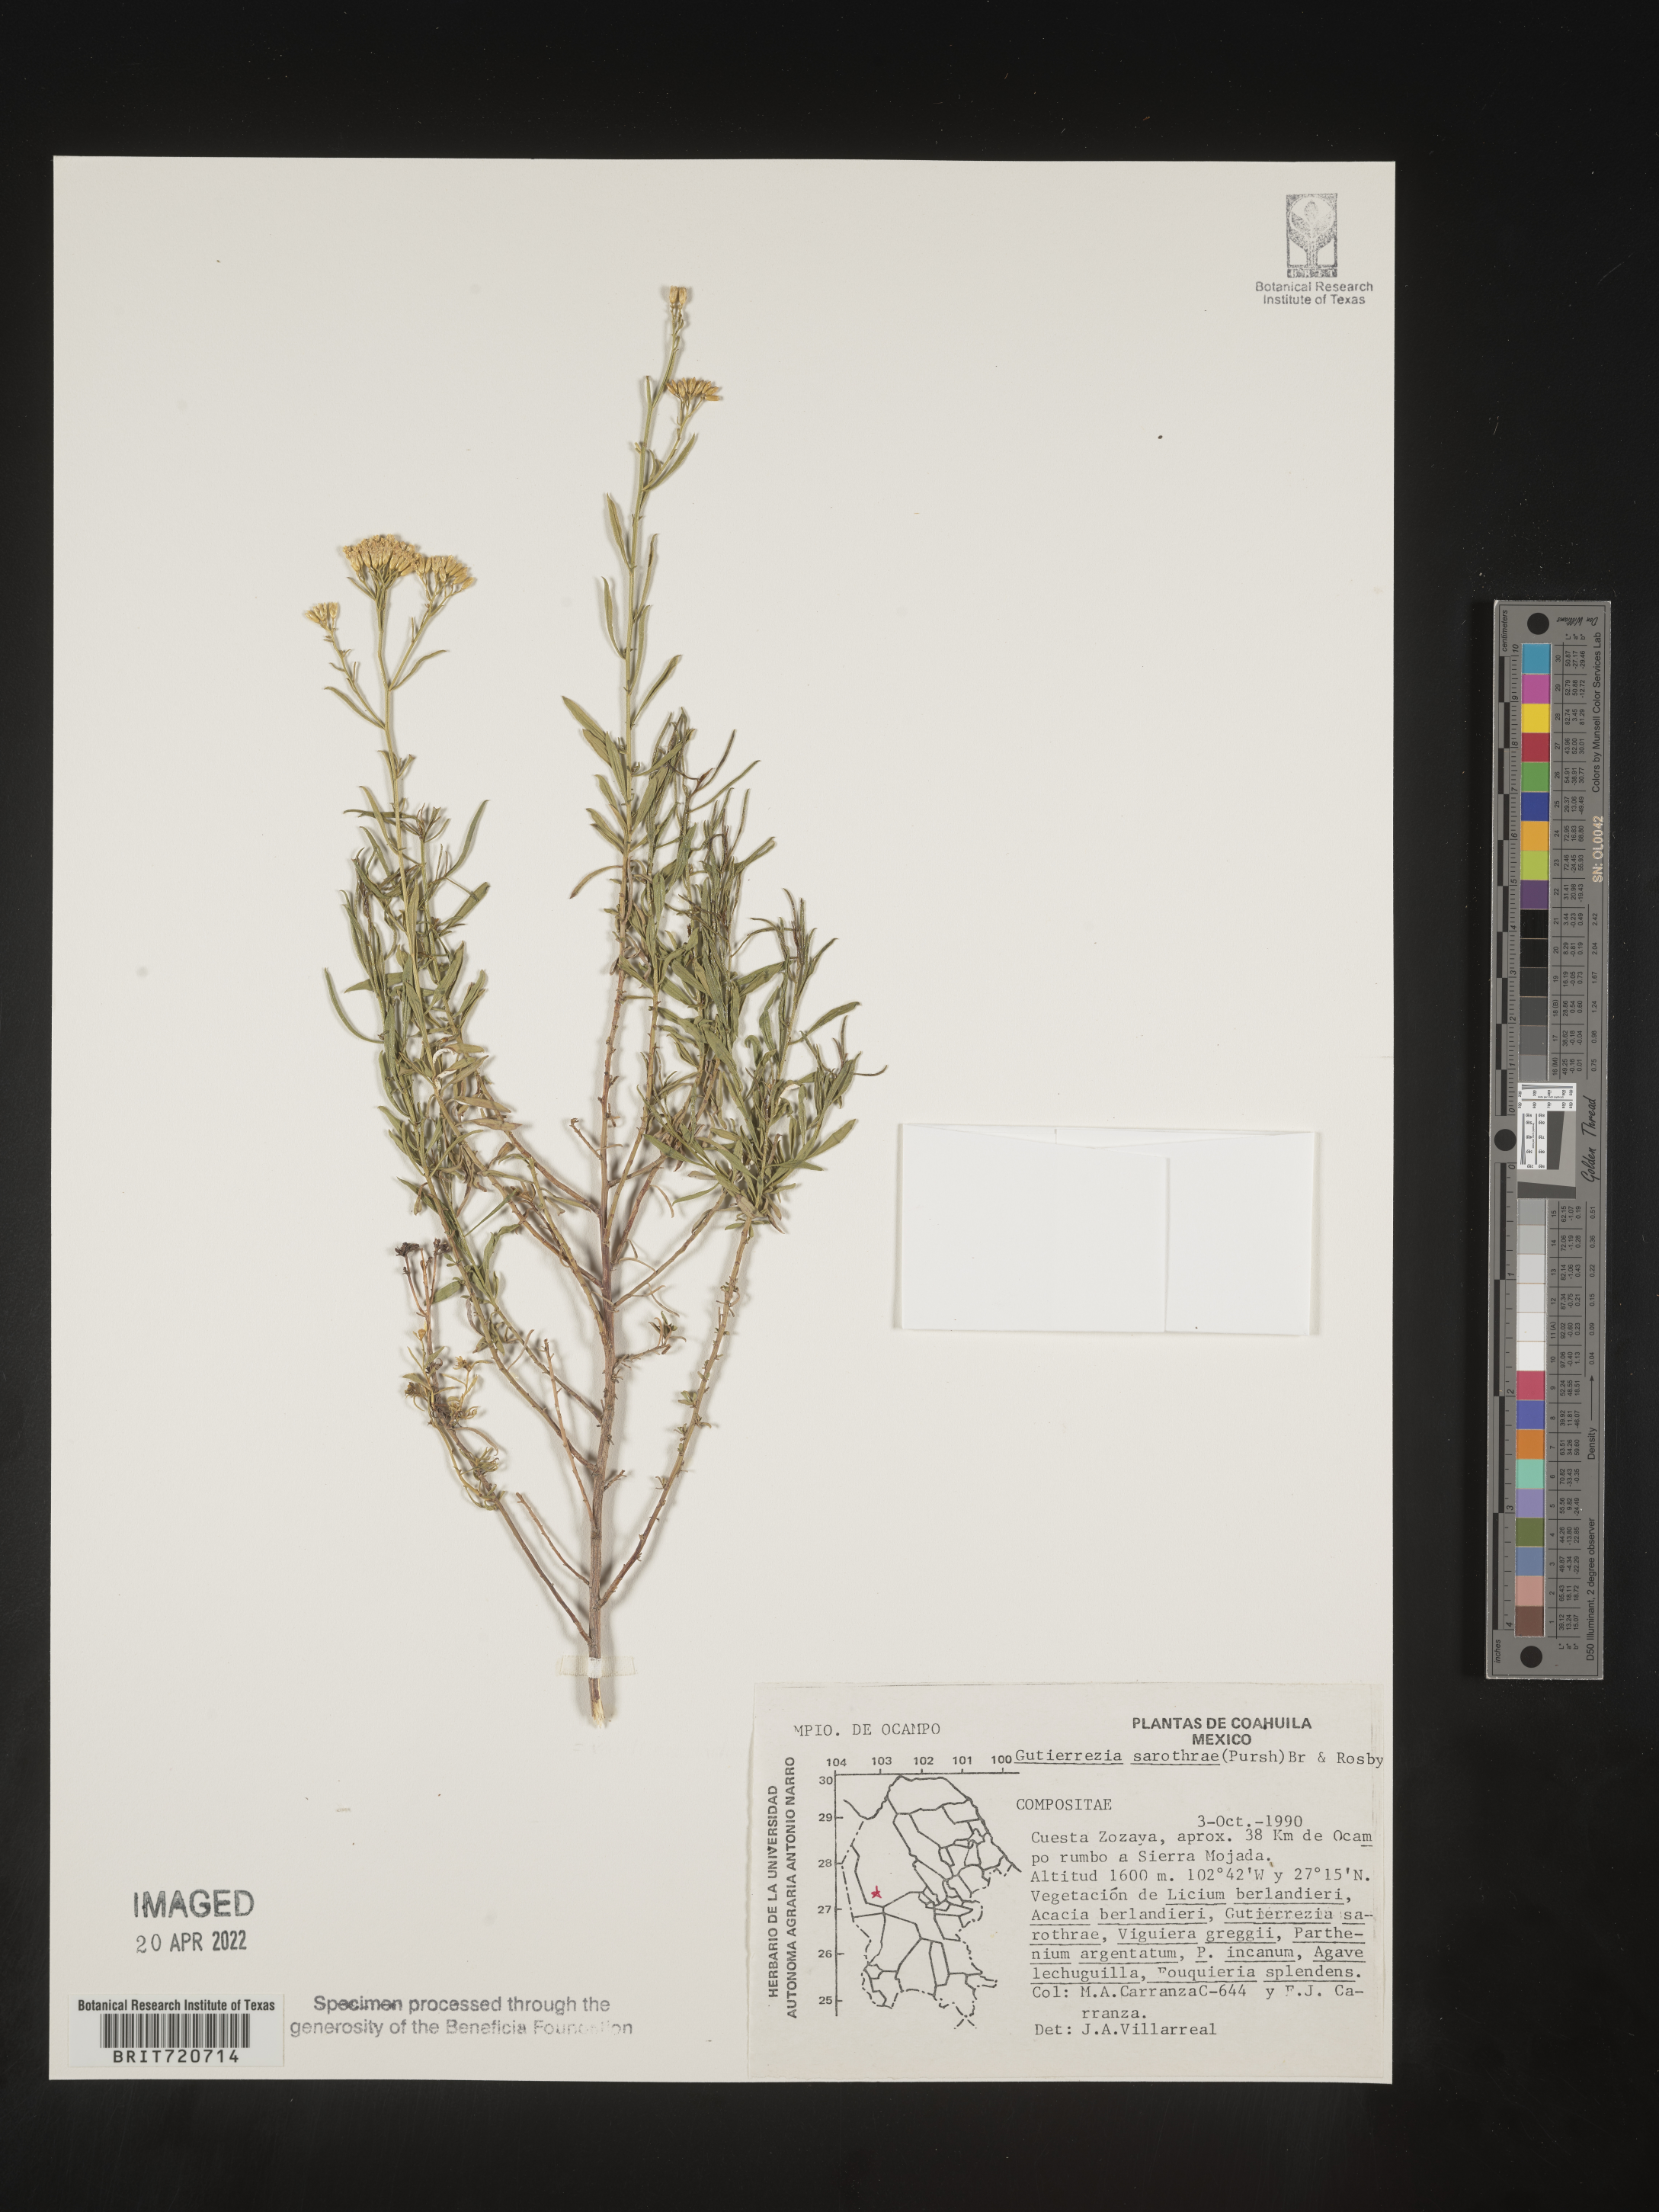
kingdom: Plantae
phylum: Tracheophyta
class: Magnoliopsida
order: Asterales
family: Asteraceae
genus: Gutierrezia
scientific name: Gutierrezia microcephala
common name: Thread snakeweed
